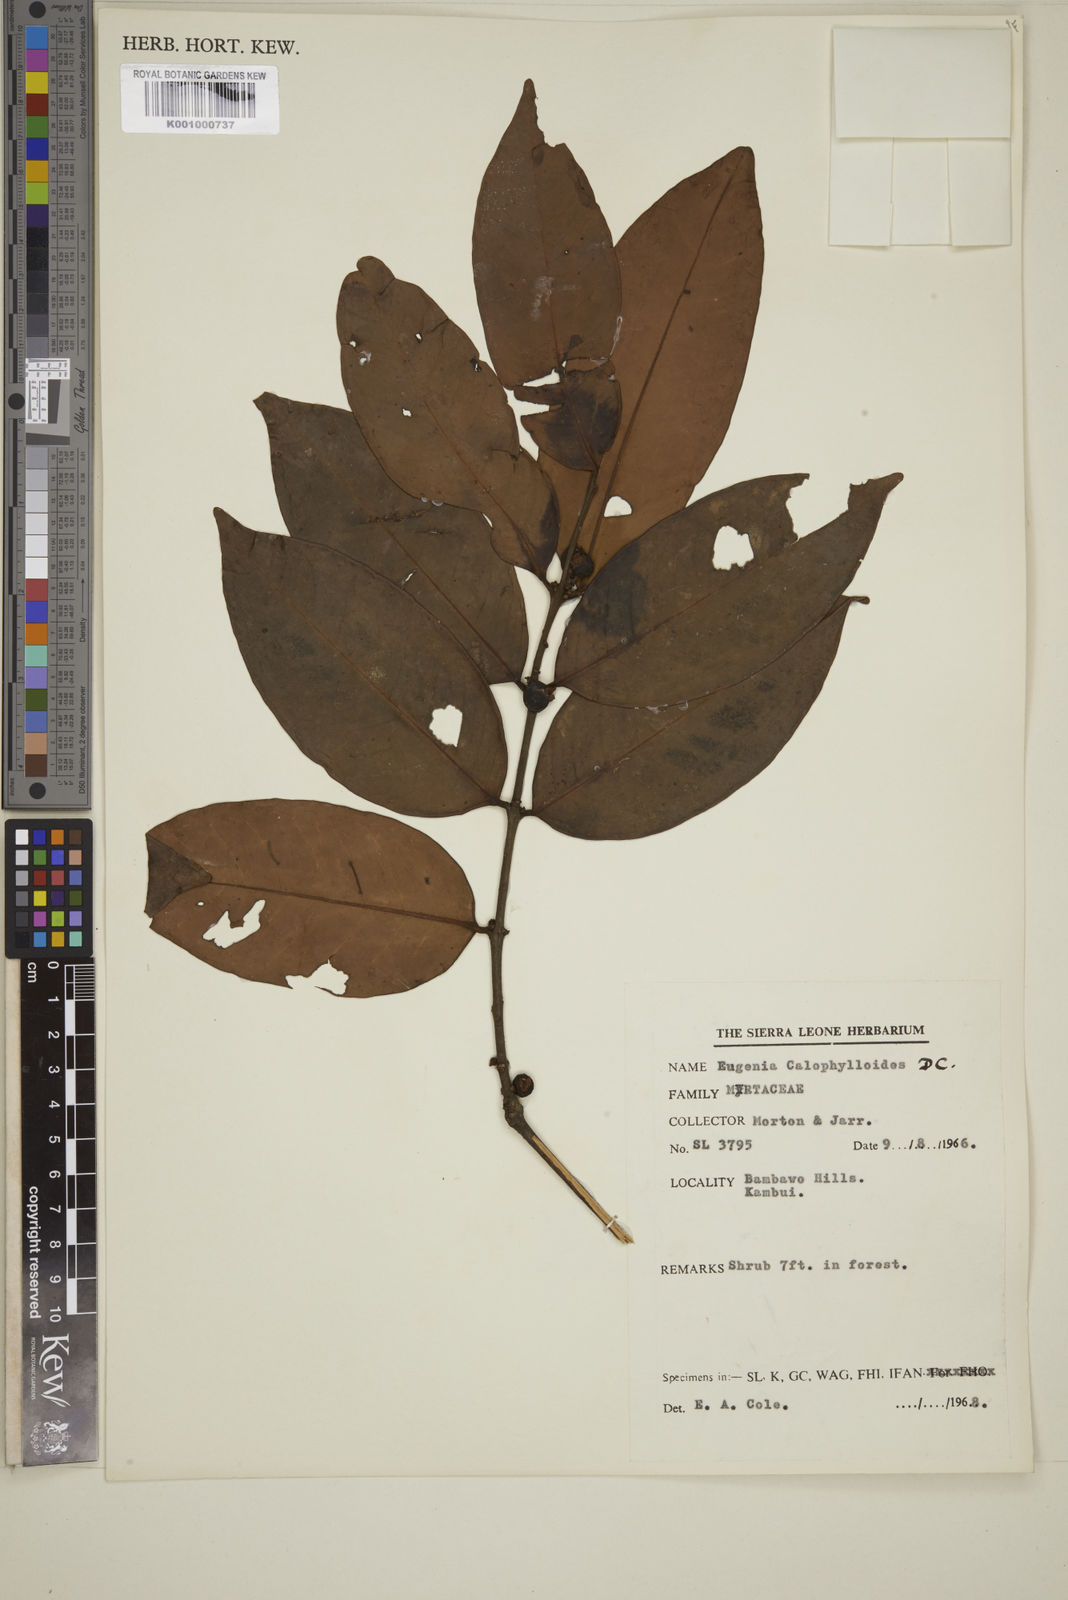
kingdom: Plantae
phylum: Tracheophyta
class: Magnoliopsida
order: Myrtales
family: Myrtaceae
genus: Eugenia
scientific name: Eugenia calophylloides
